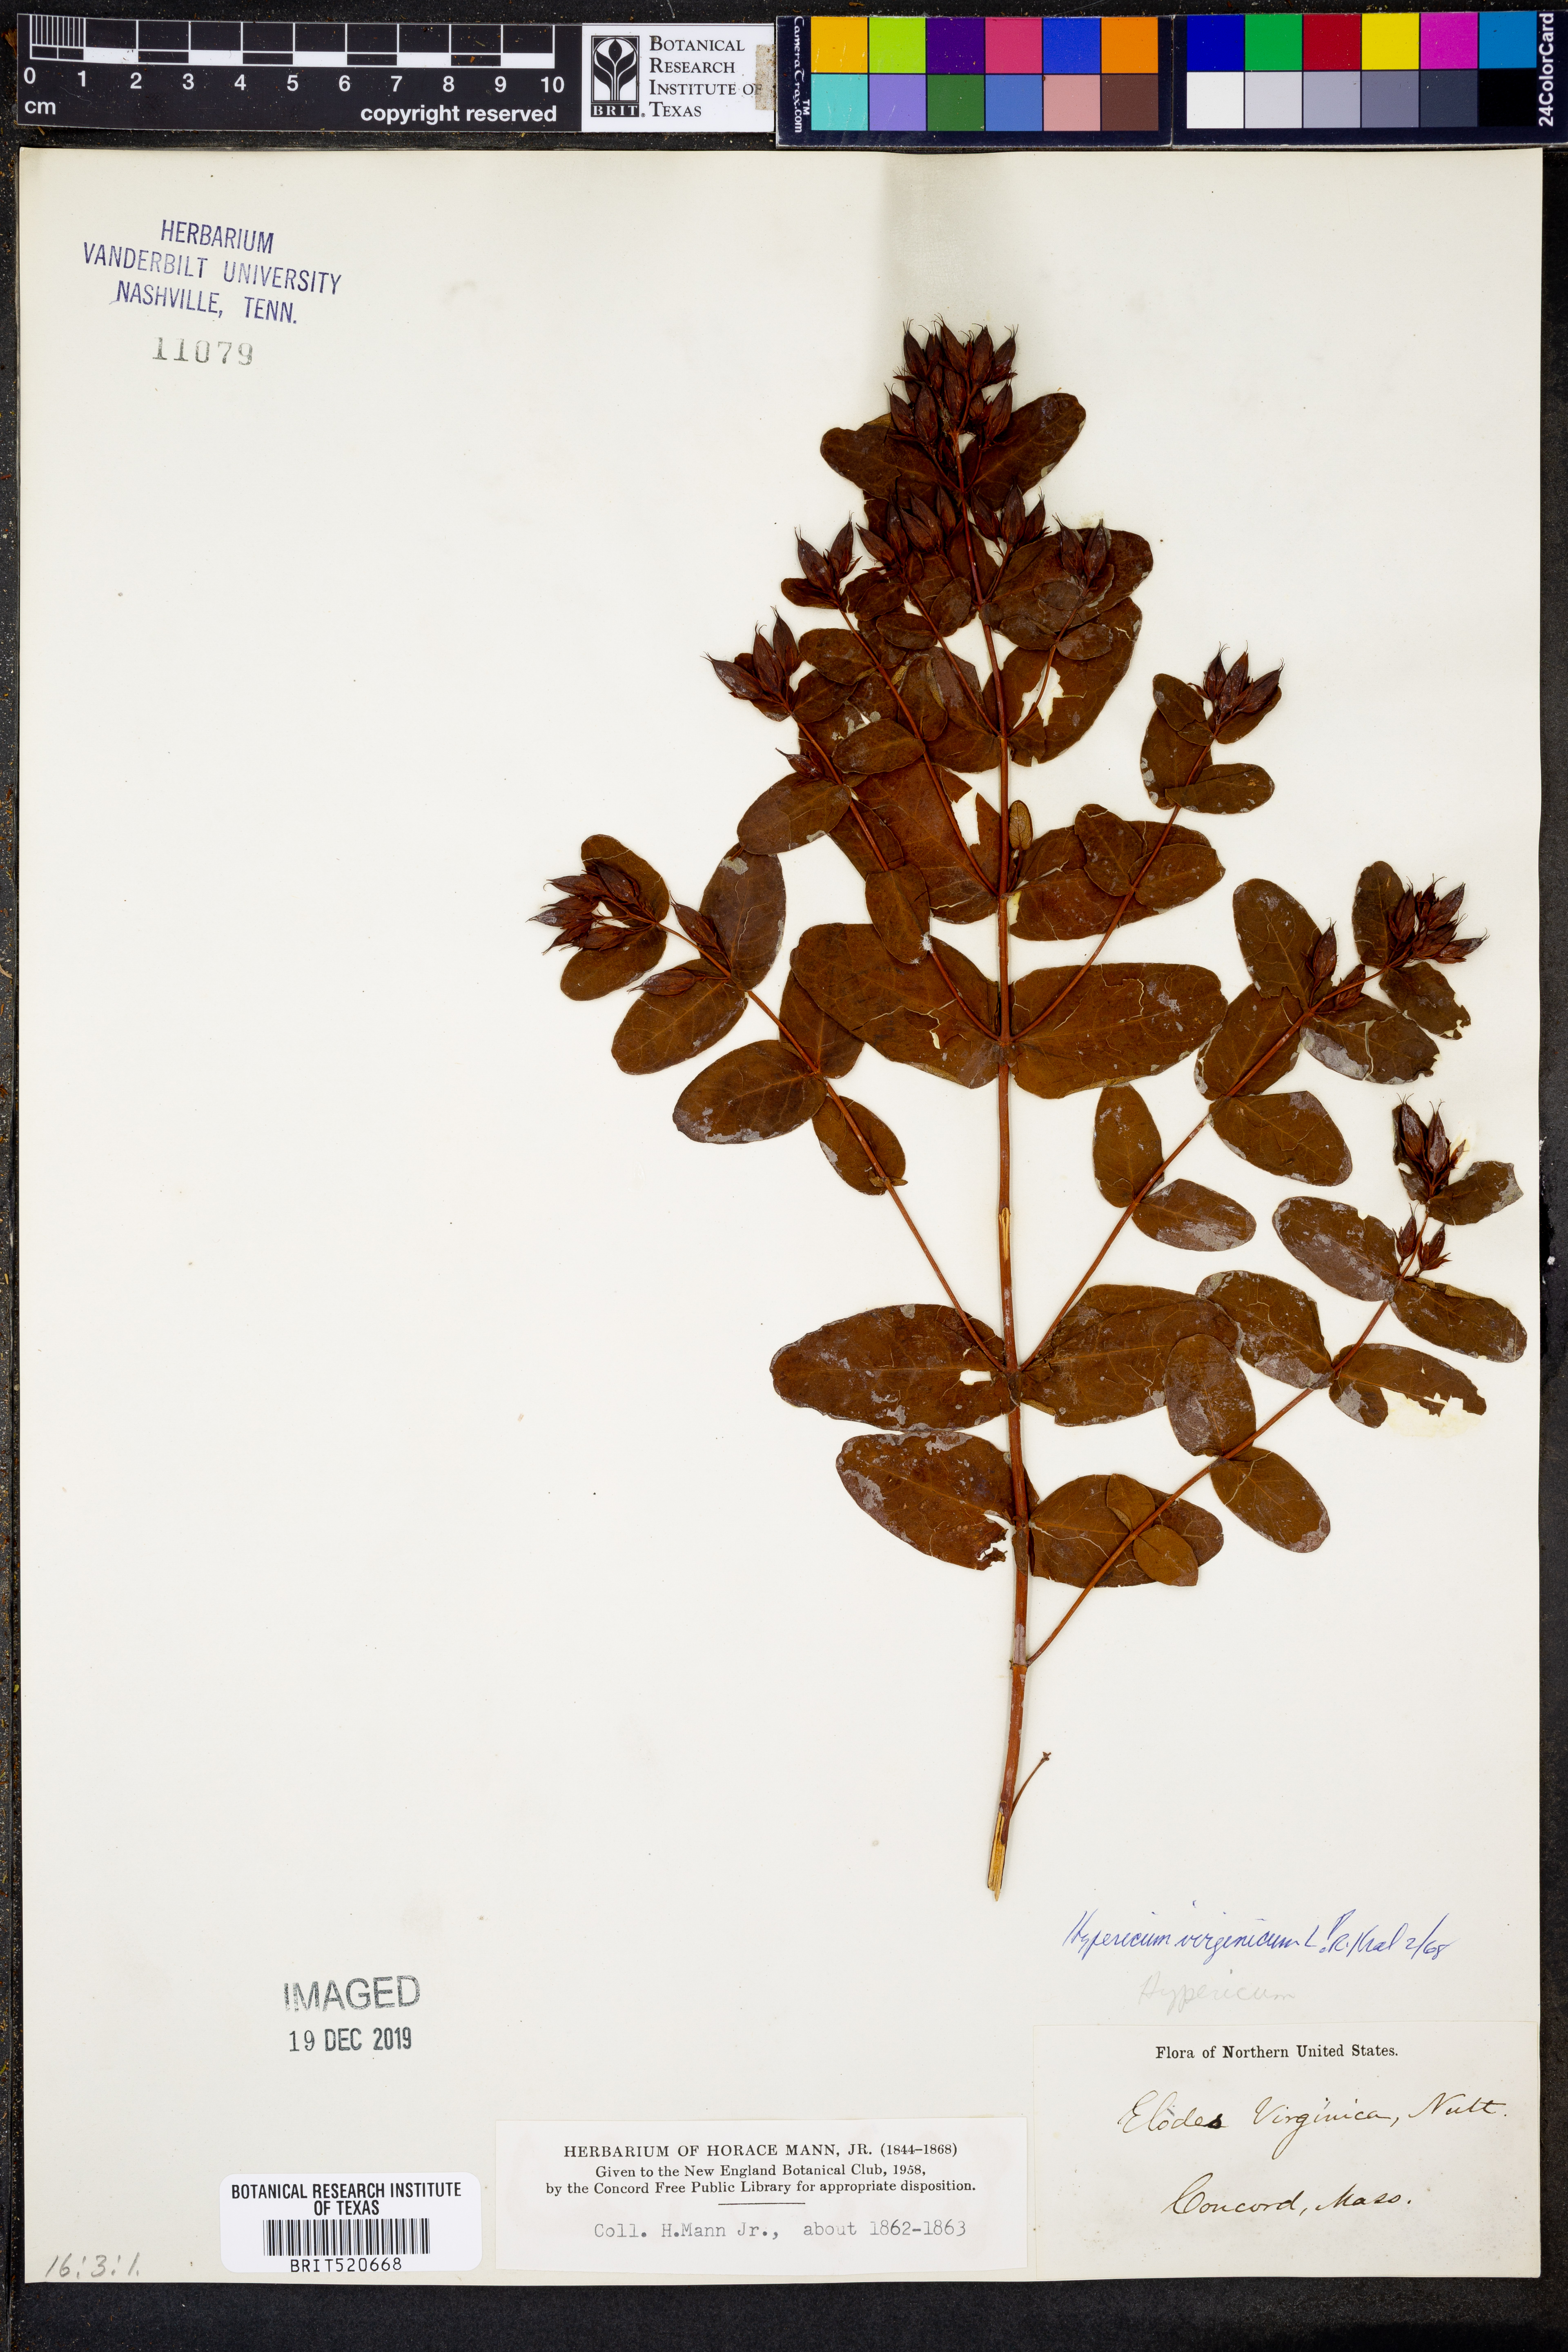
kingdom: Plantae
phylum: Tracheophyta
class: Magnoliopsida
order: Malpighiales
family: Hypericaceae
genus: Triadenum
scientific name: Triadenum virginicum
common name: Marsh st. john's-wort
